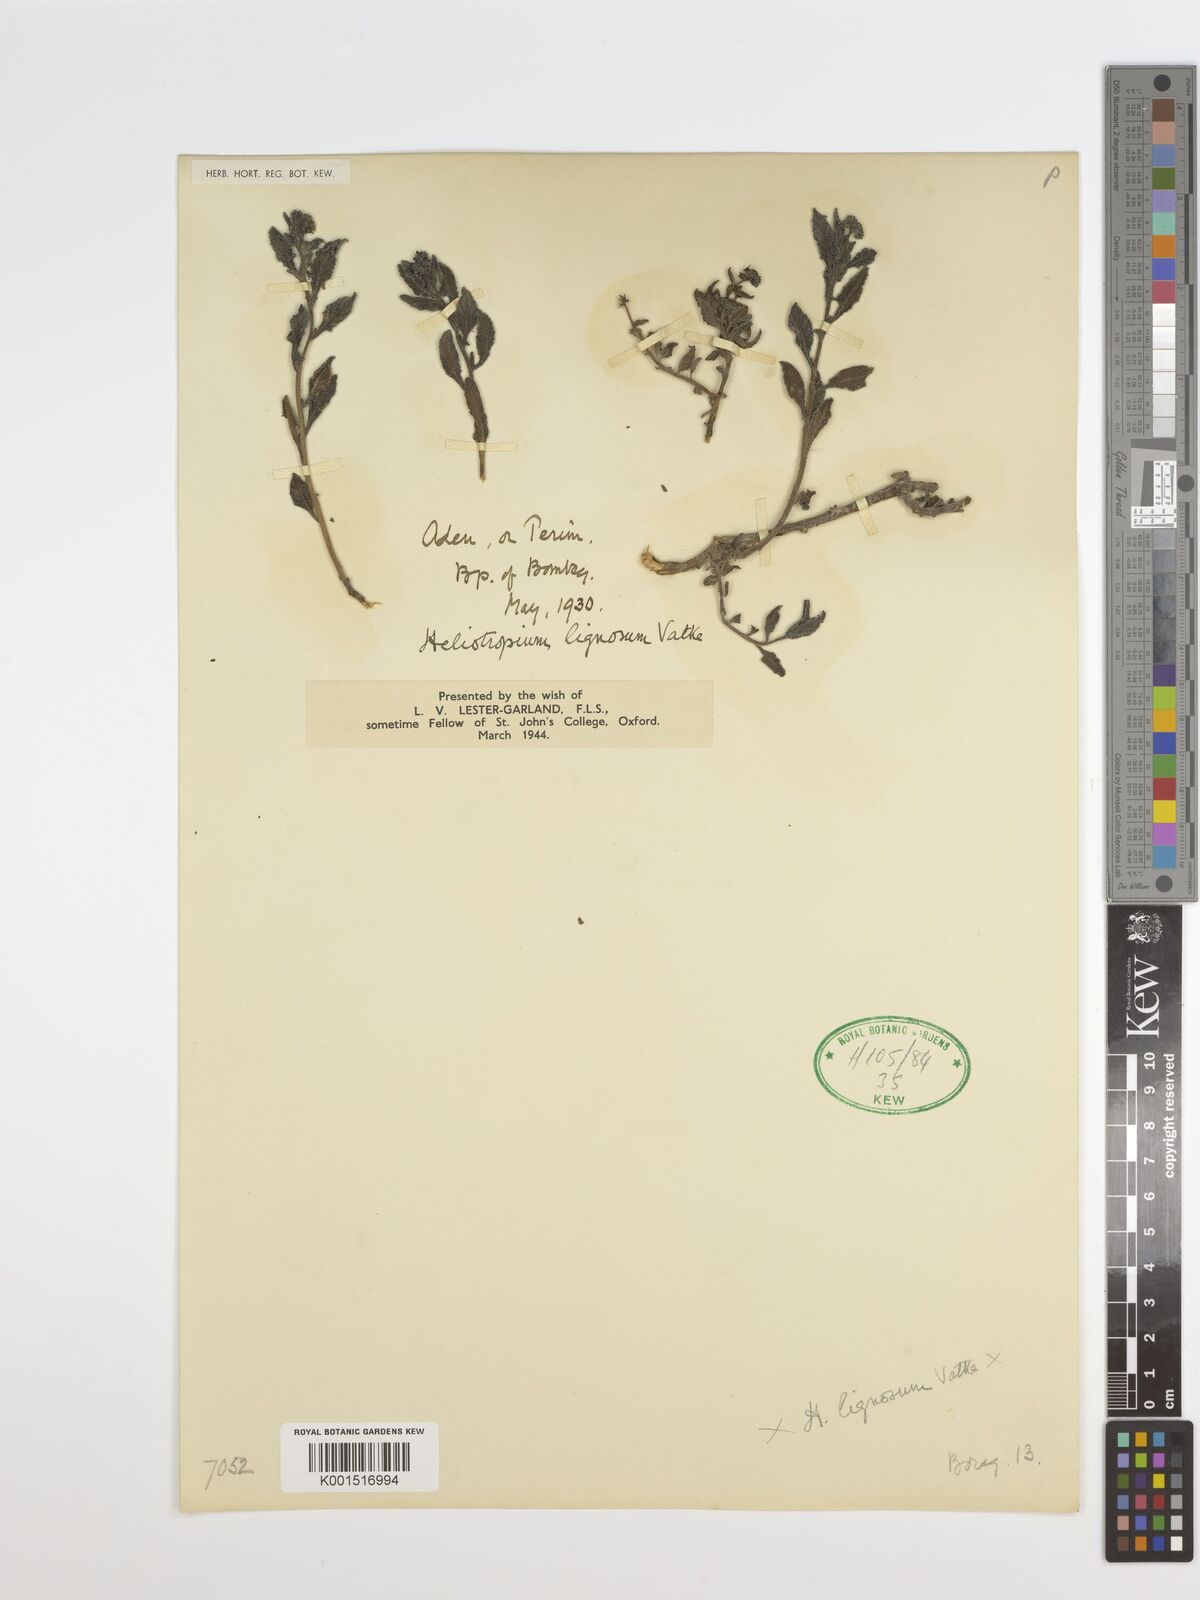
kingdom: Plantae
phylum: Tracheophyta
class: Magnoliopsida
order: Boraginales
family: Heliotropiaceae
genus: Heliotropium
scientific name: Heliotropium lignosum
